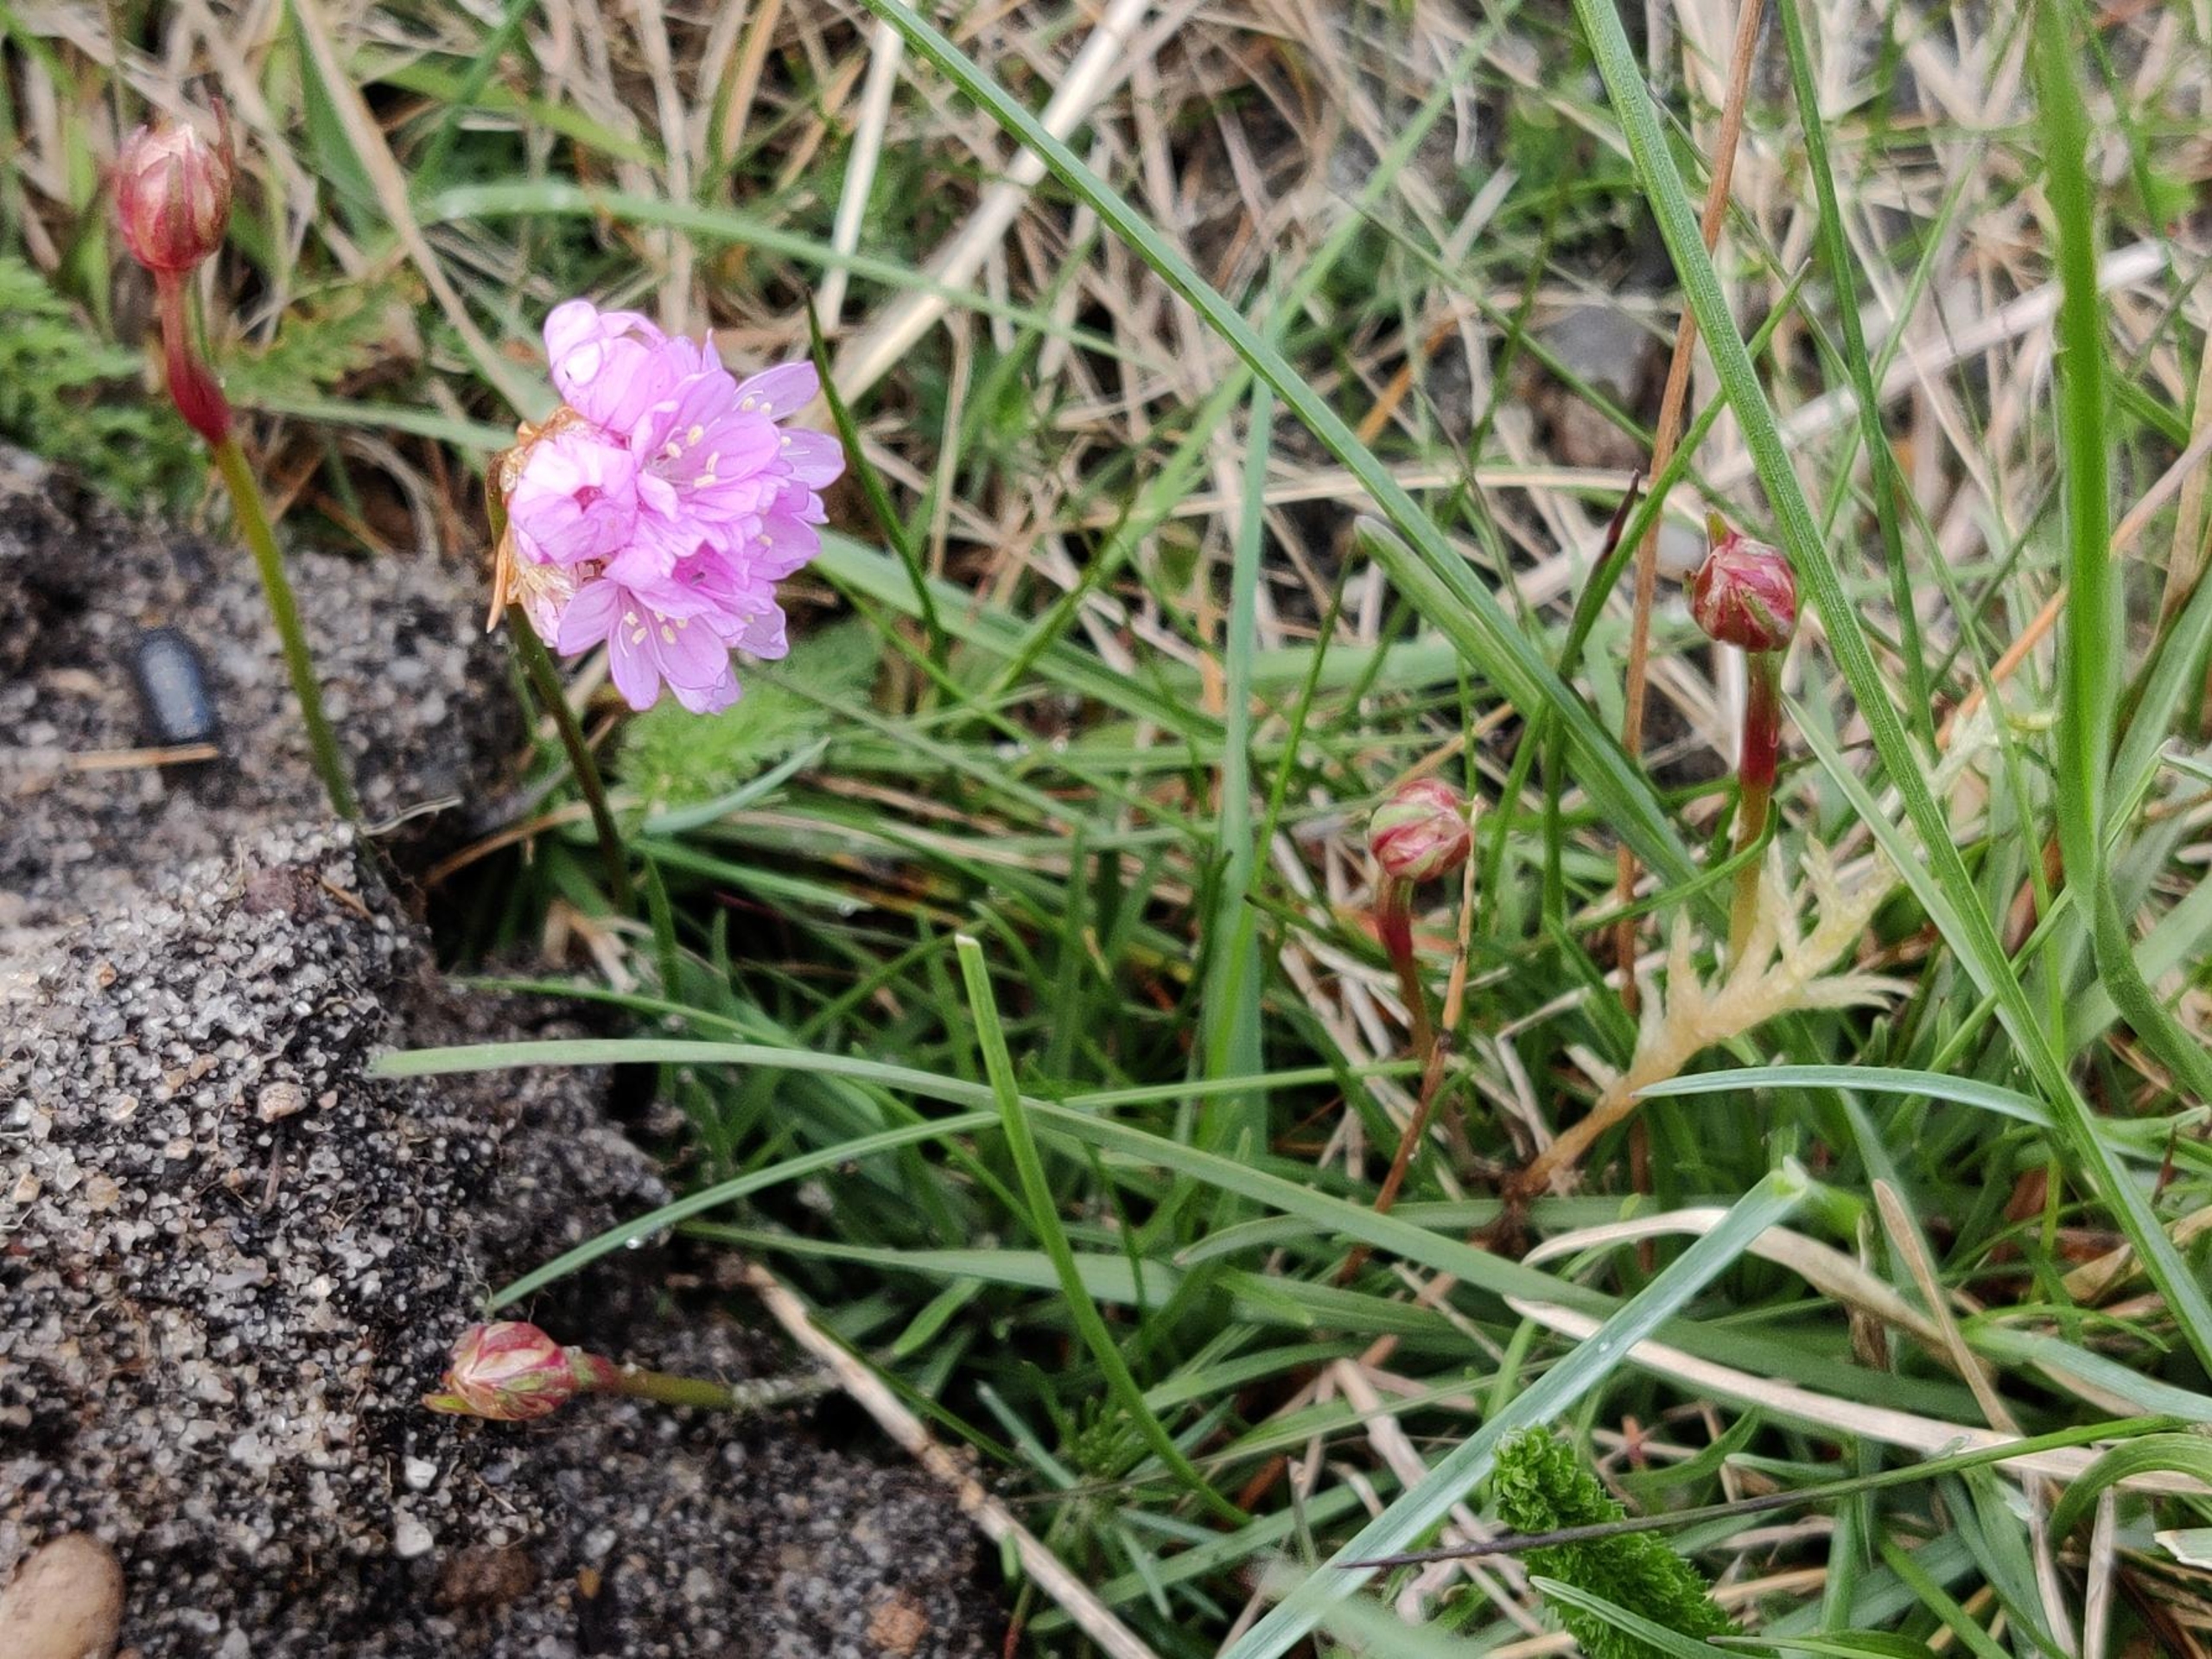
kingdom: Plantae
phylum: Tracheophyta
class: Magnoliopsida
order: Caryophyllales
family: Plumbaginaceae
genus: Armeria
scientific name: Armeria maritima
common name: Engelskgræs
